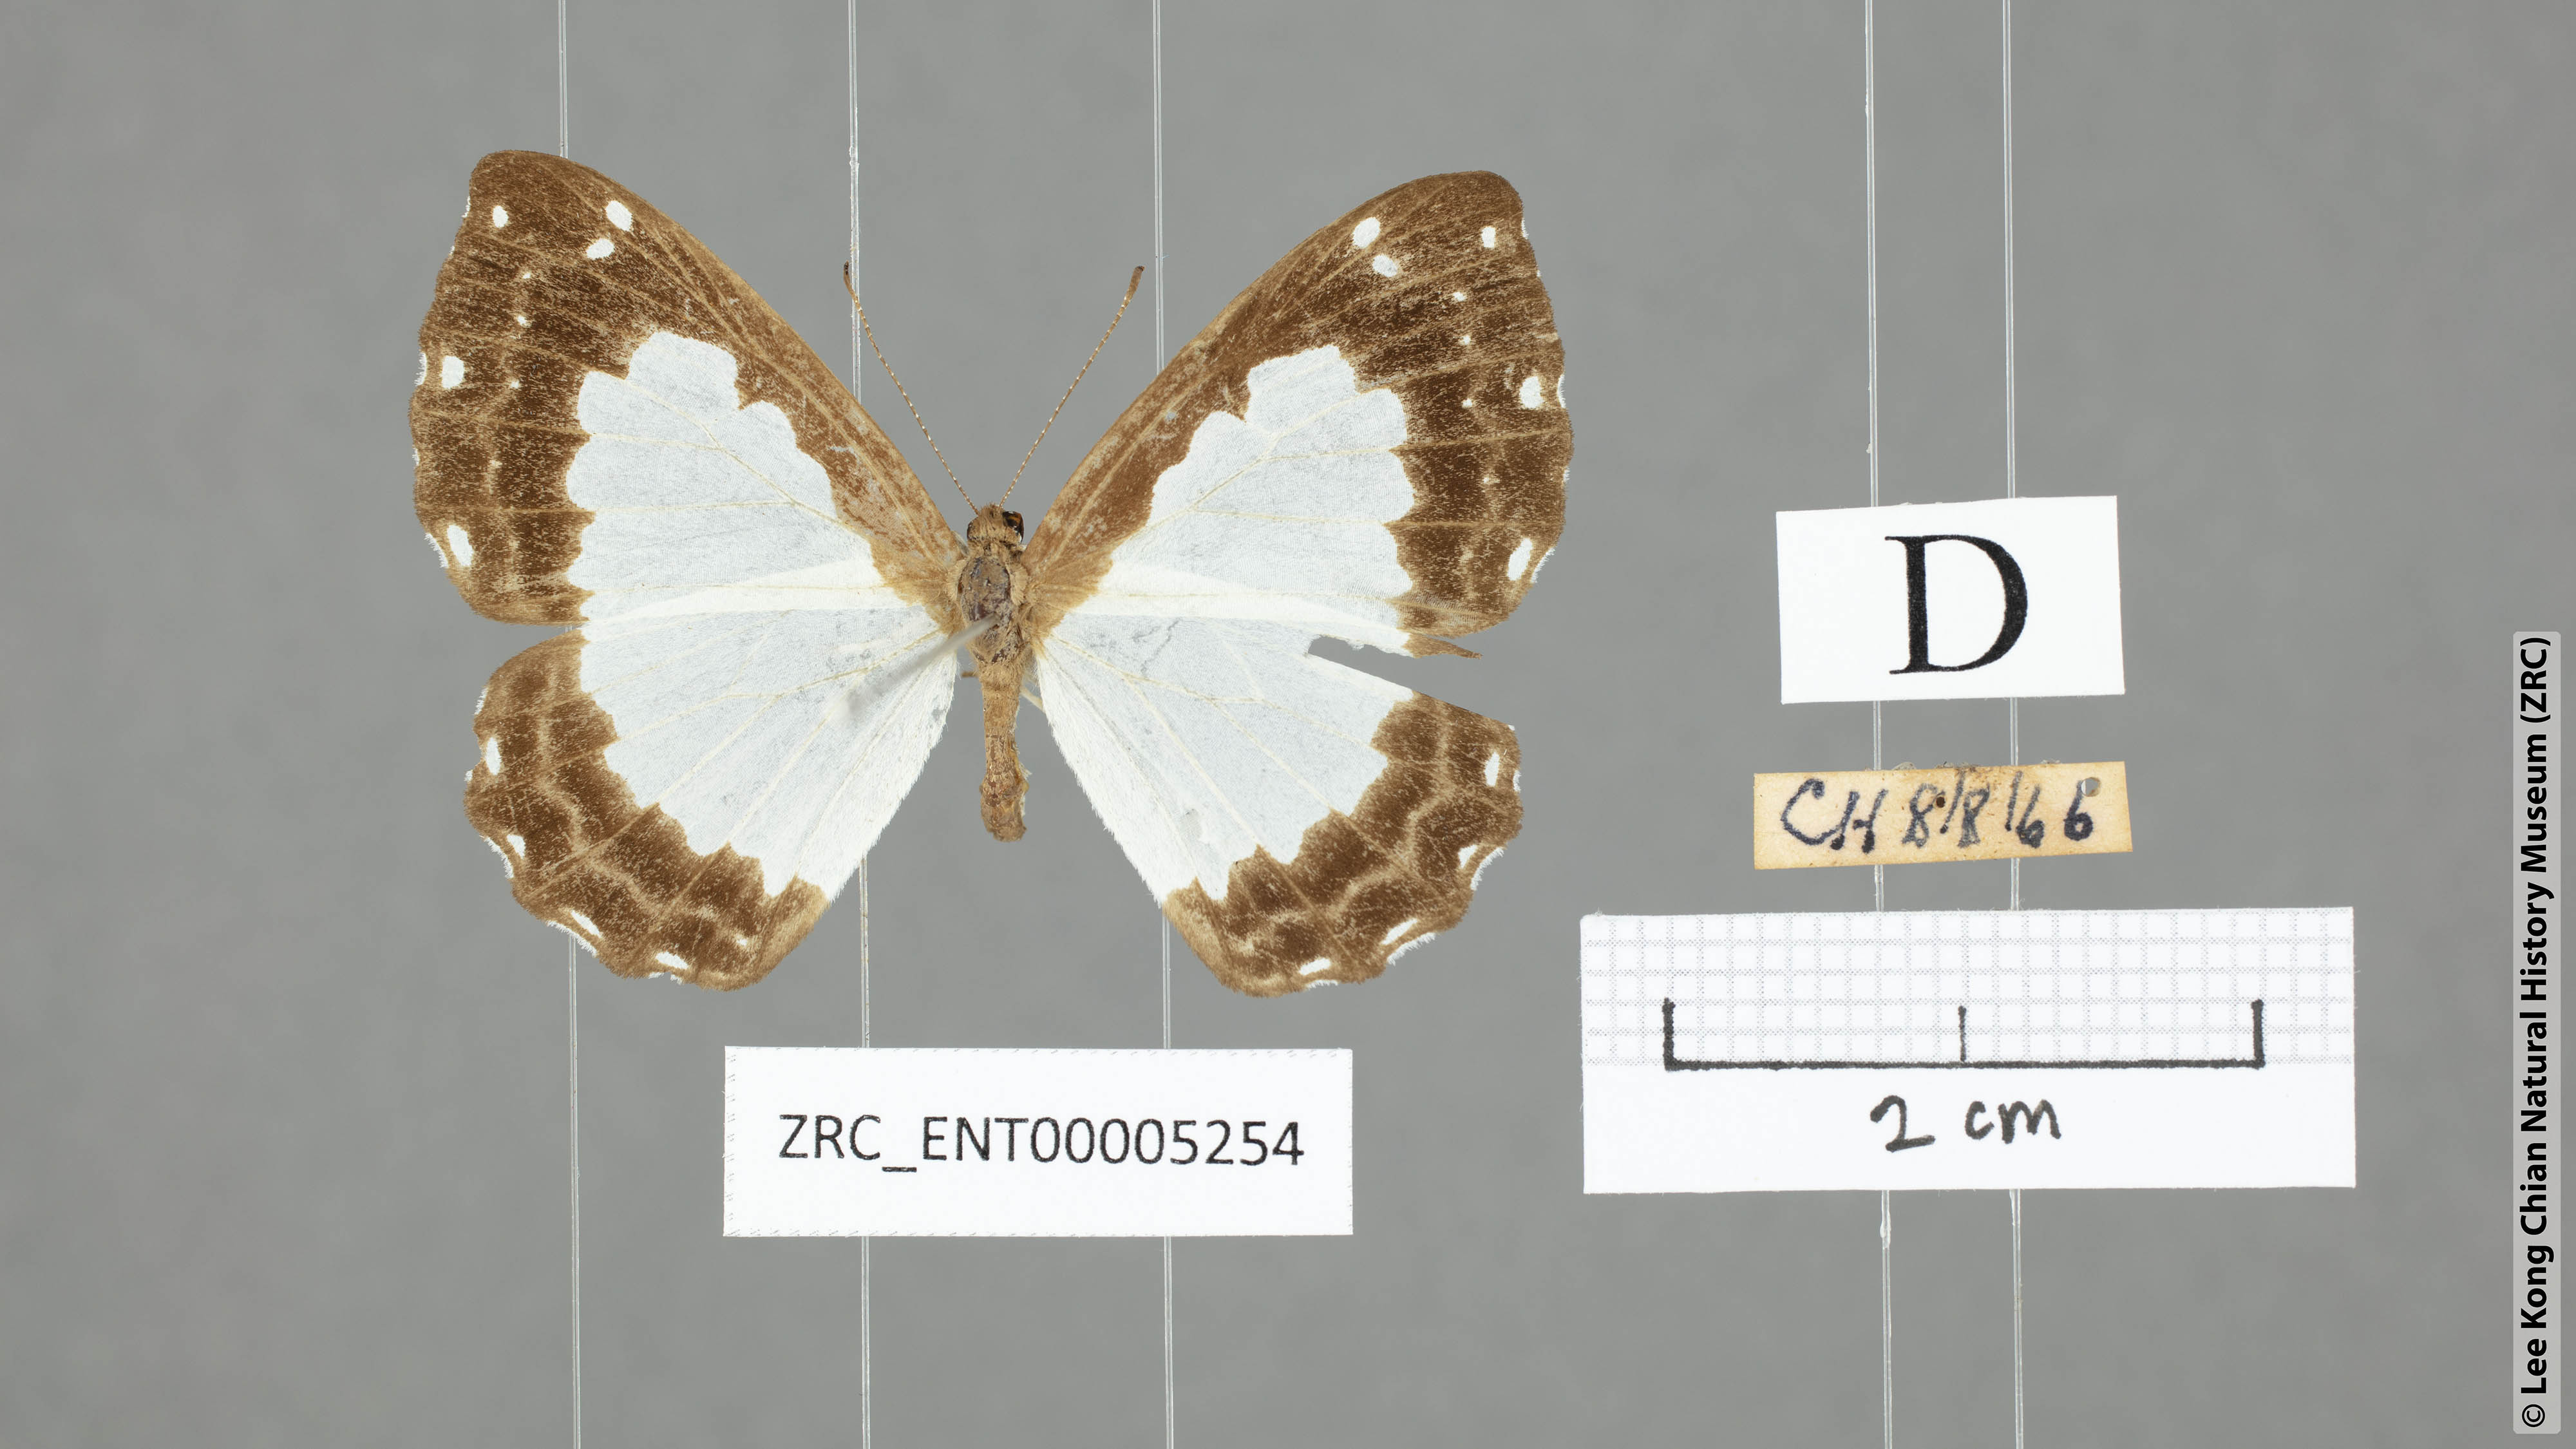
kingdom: Animalia
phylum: Arthropoda
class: Insecta
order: Lepidoptera
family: Riodinidae
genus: Stiboges
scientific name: Stiboges nymphidia
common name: Columbine
